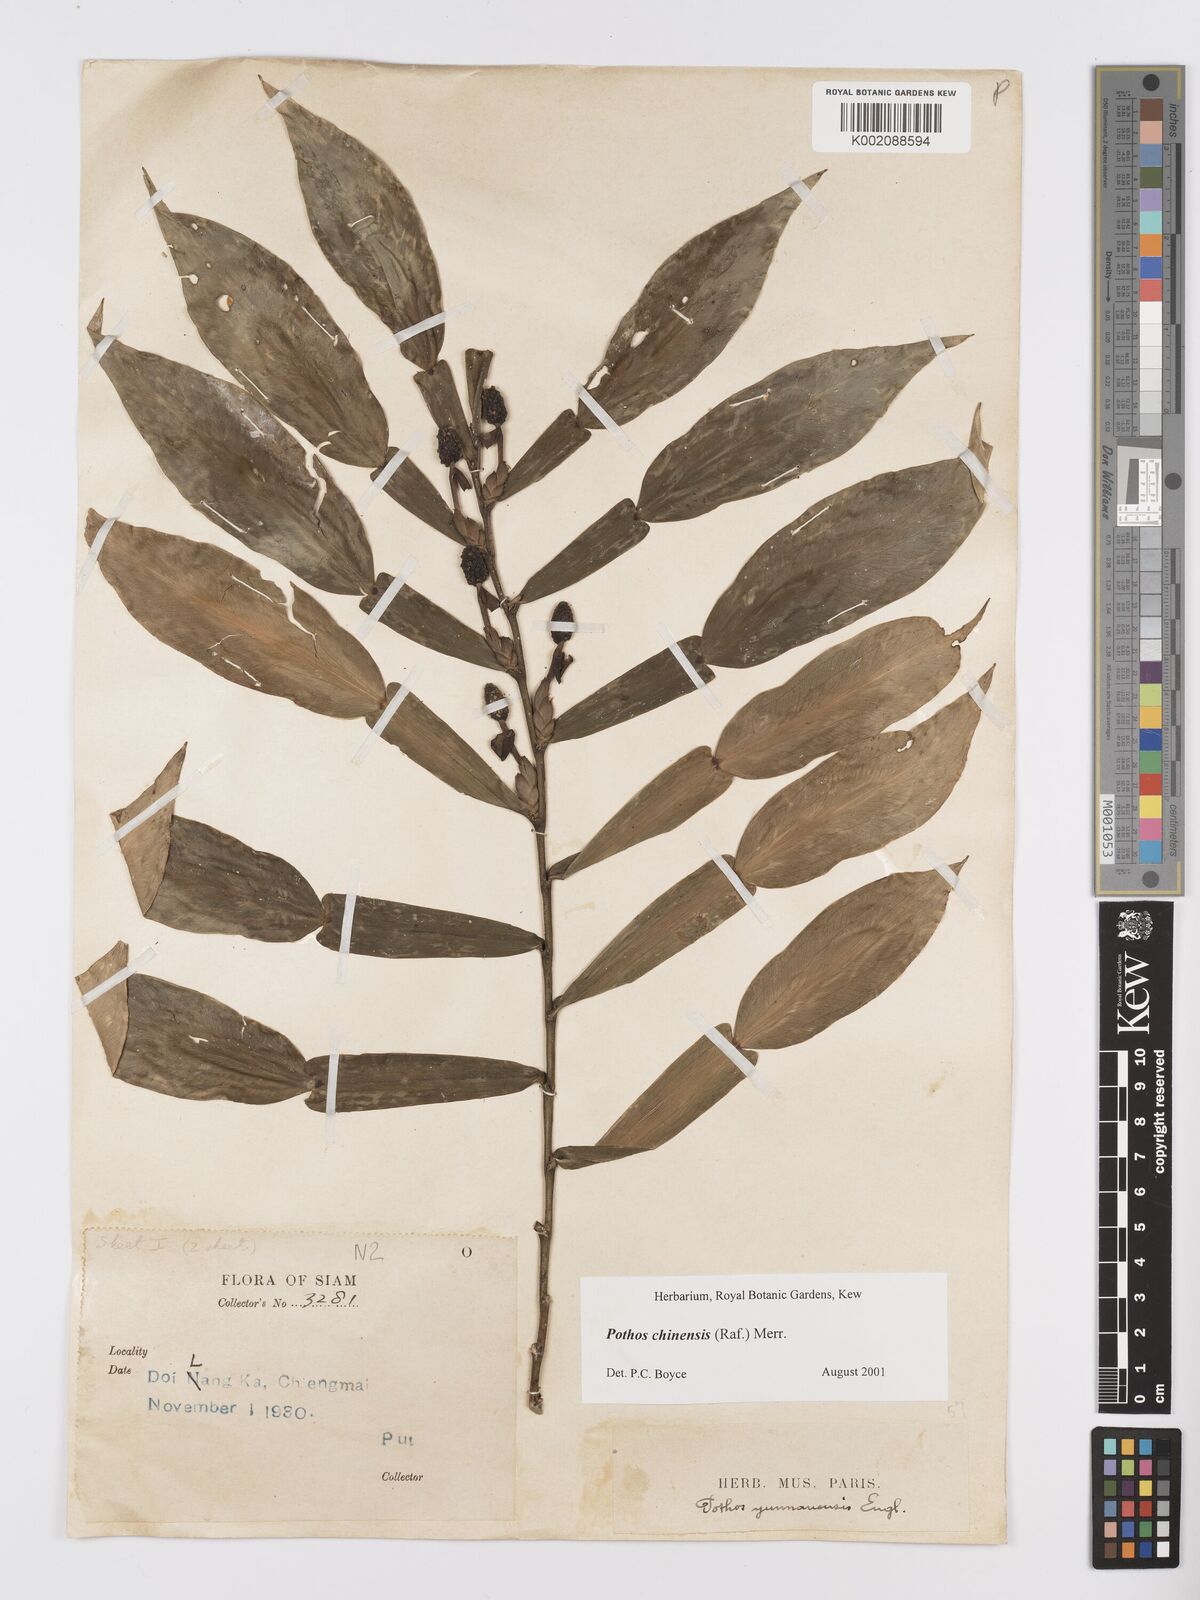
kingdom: Plantae
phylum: Tracheophyta
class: Liliopsida
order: Alismatales
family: Araceae
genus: Pothos
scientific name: Pothos chinensis
